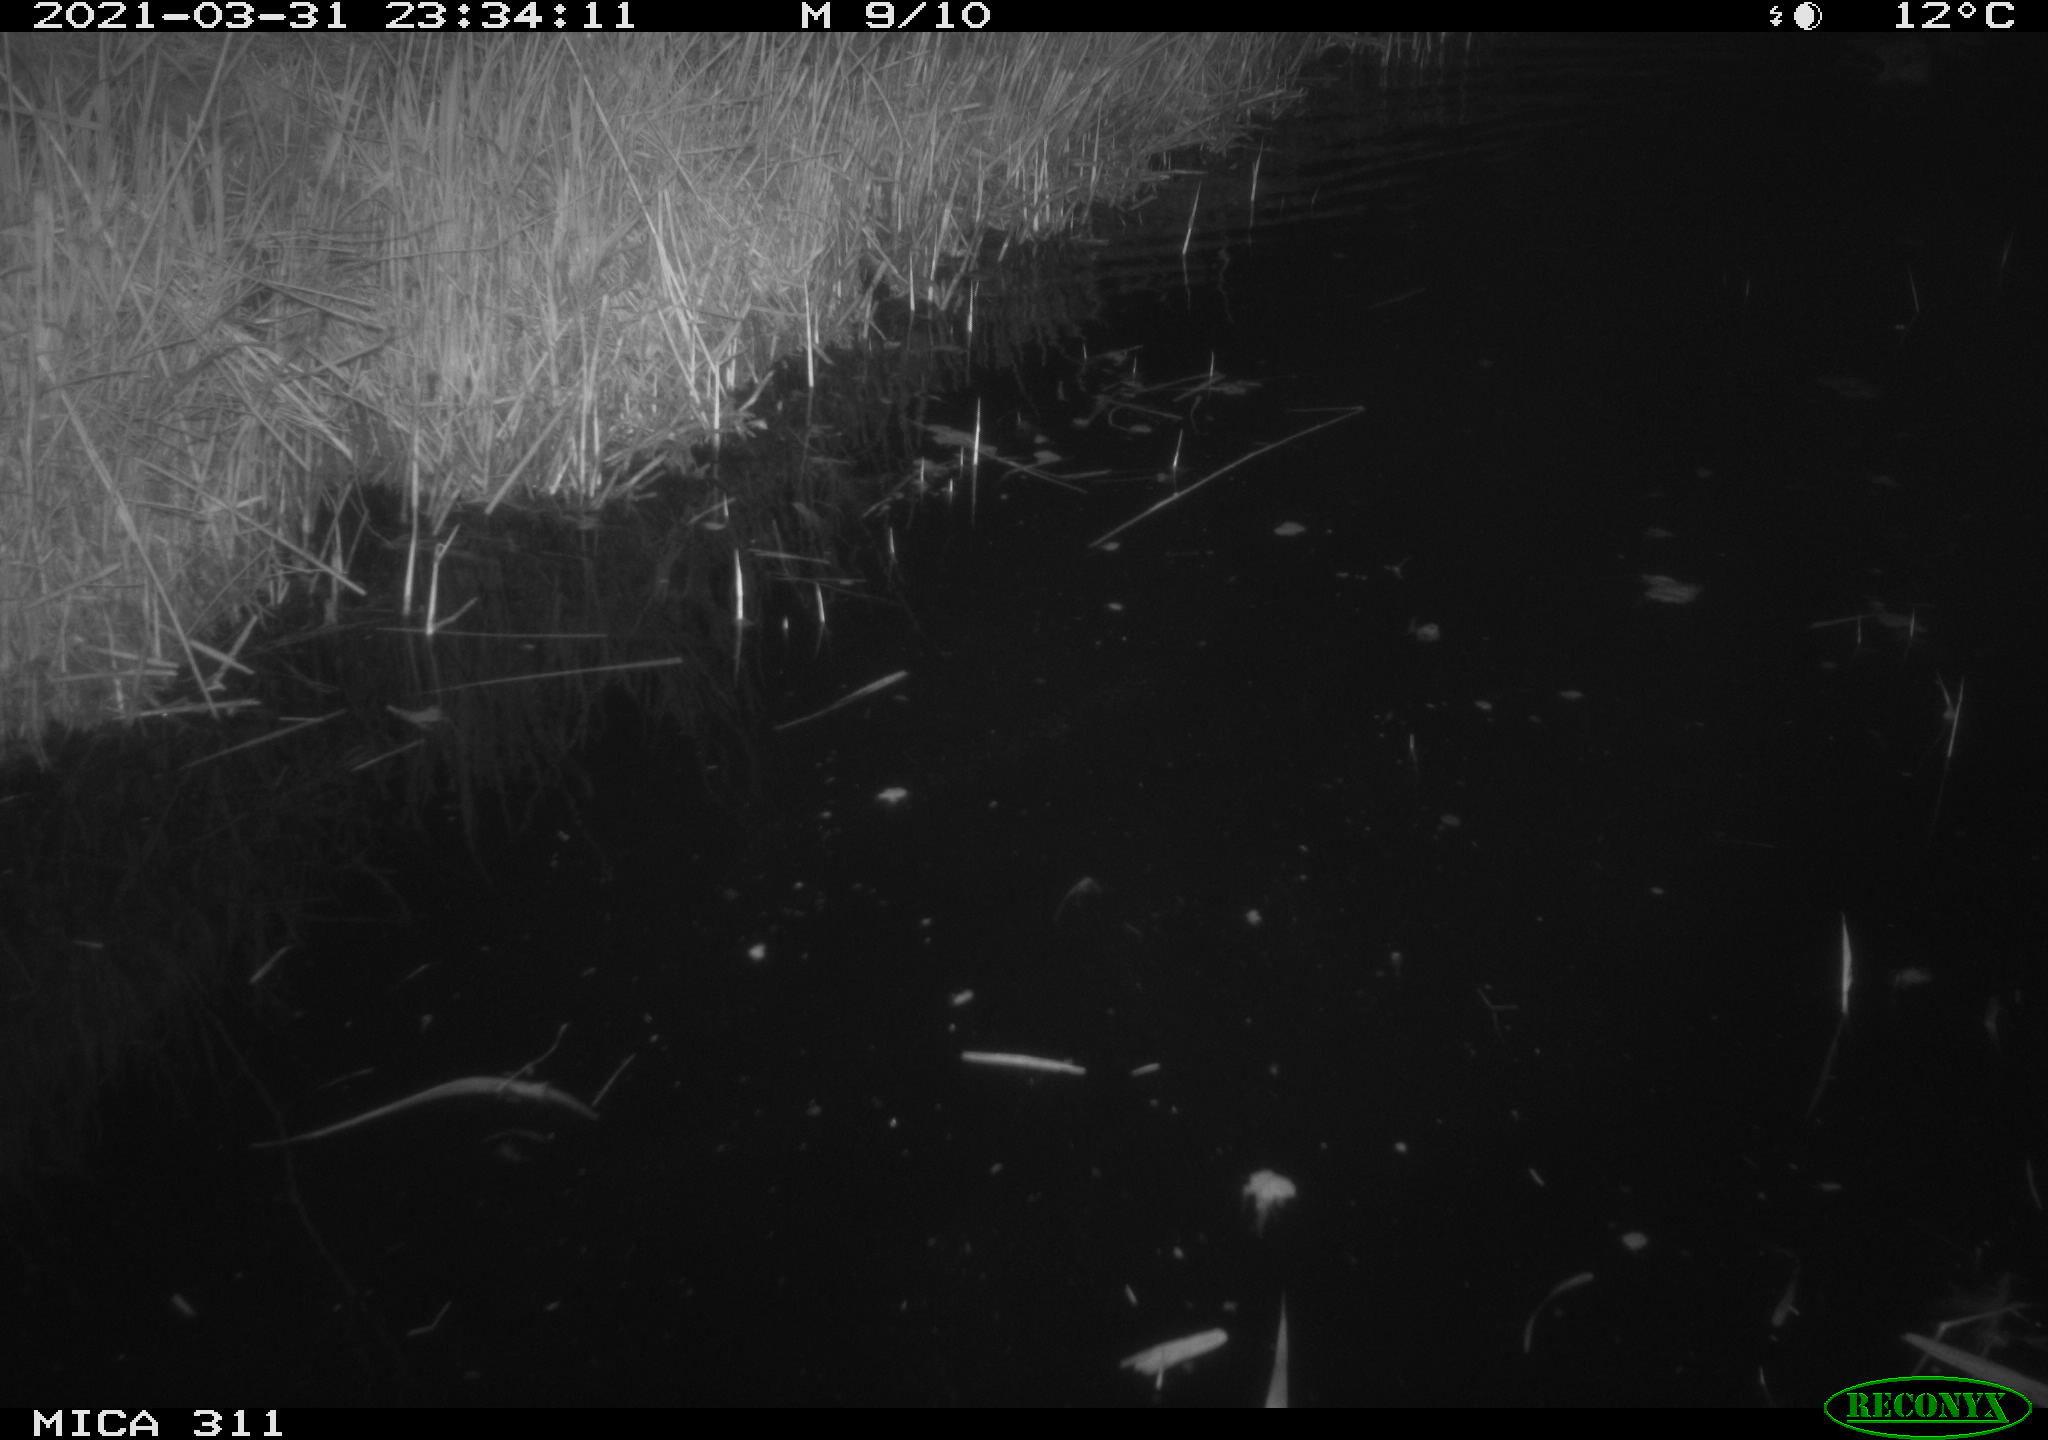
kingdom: Animalia
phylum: Chordata
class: Aves
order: Anseriformes
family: Anatidae
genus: Anas
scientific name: Anas platyrhynchos
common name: Mallard
